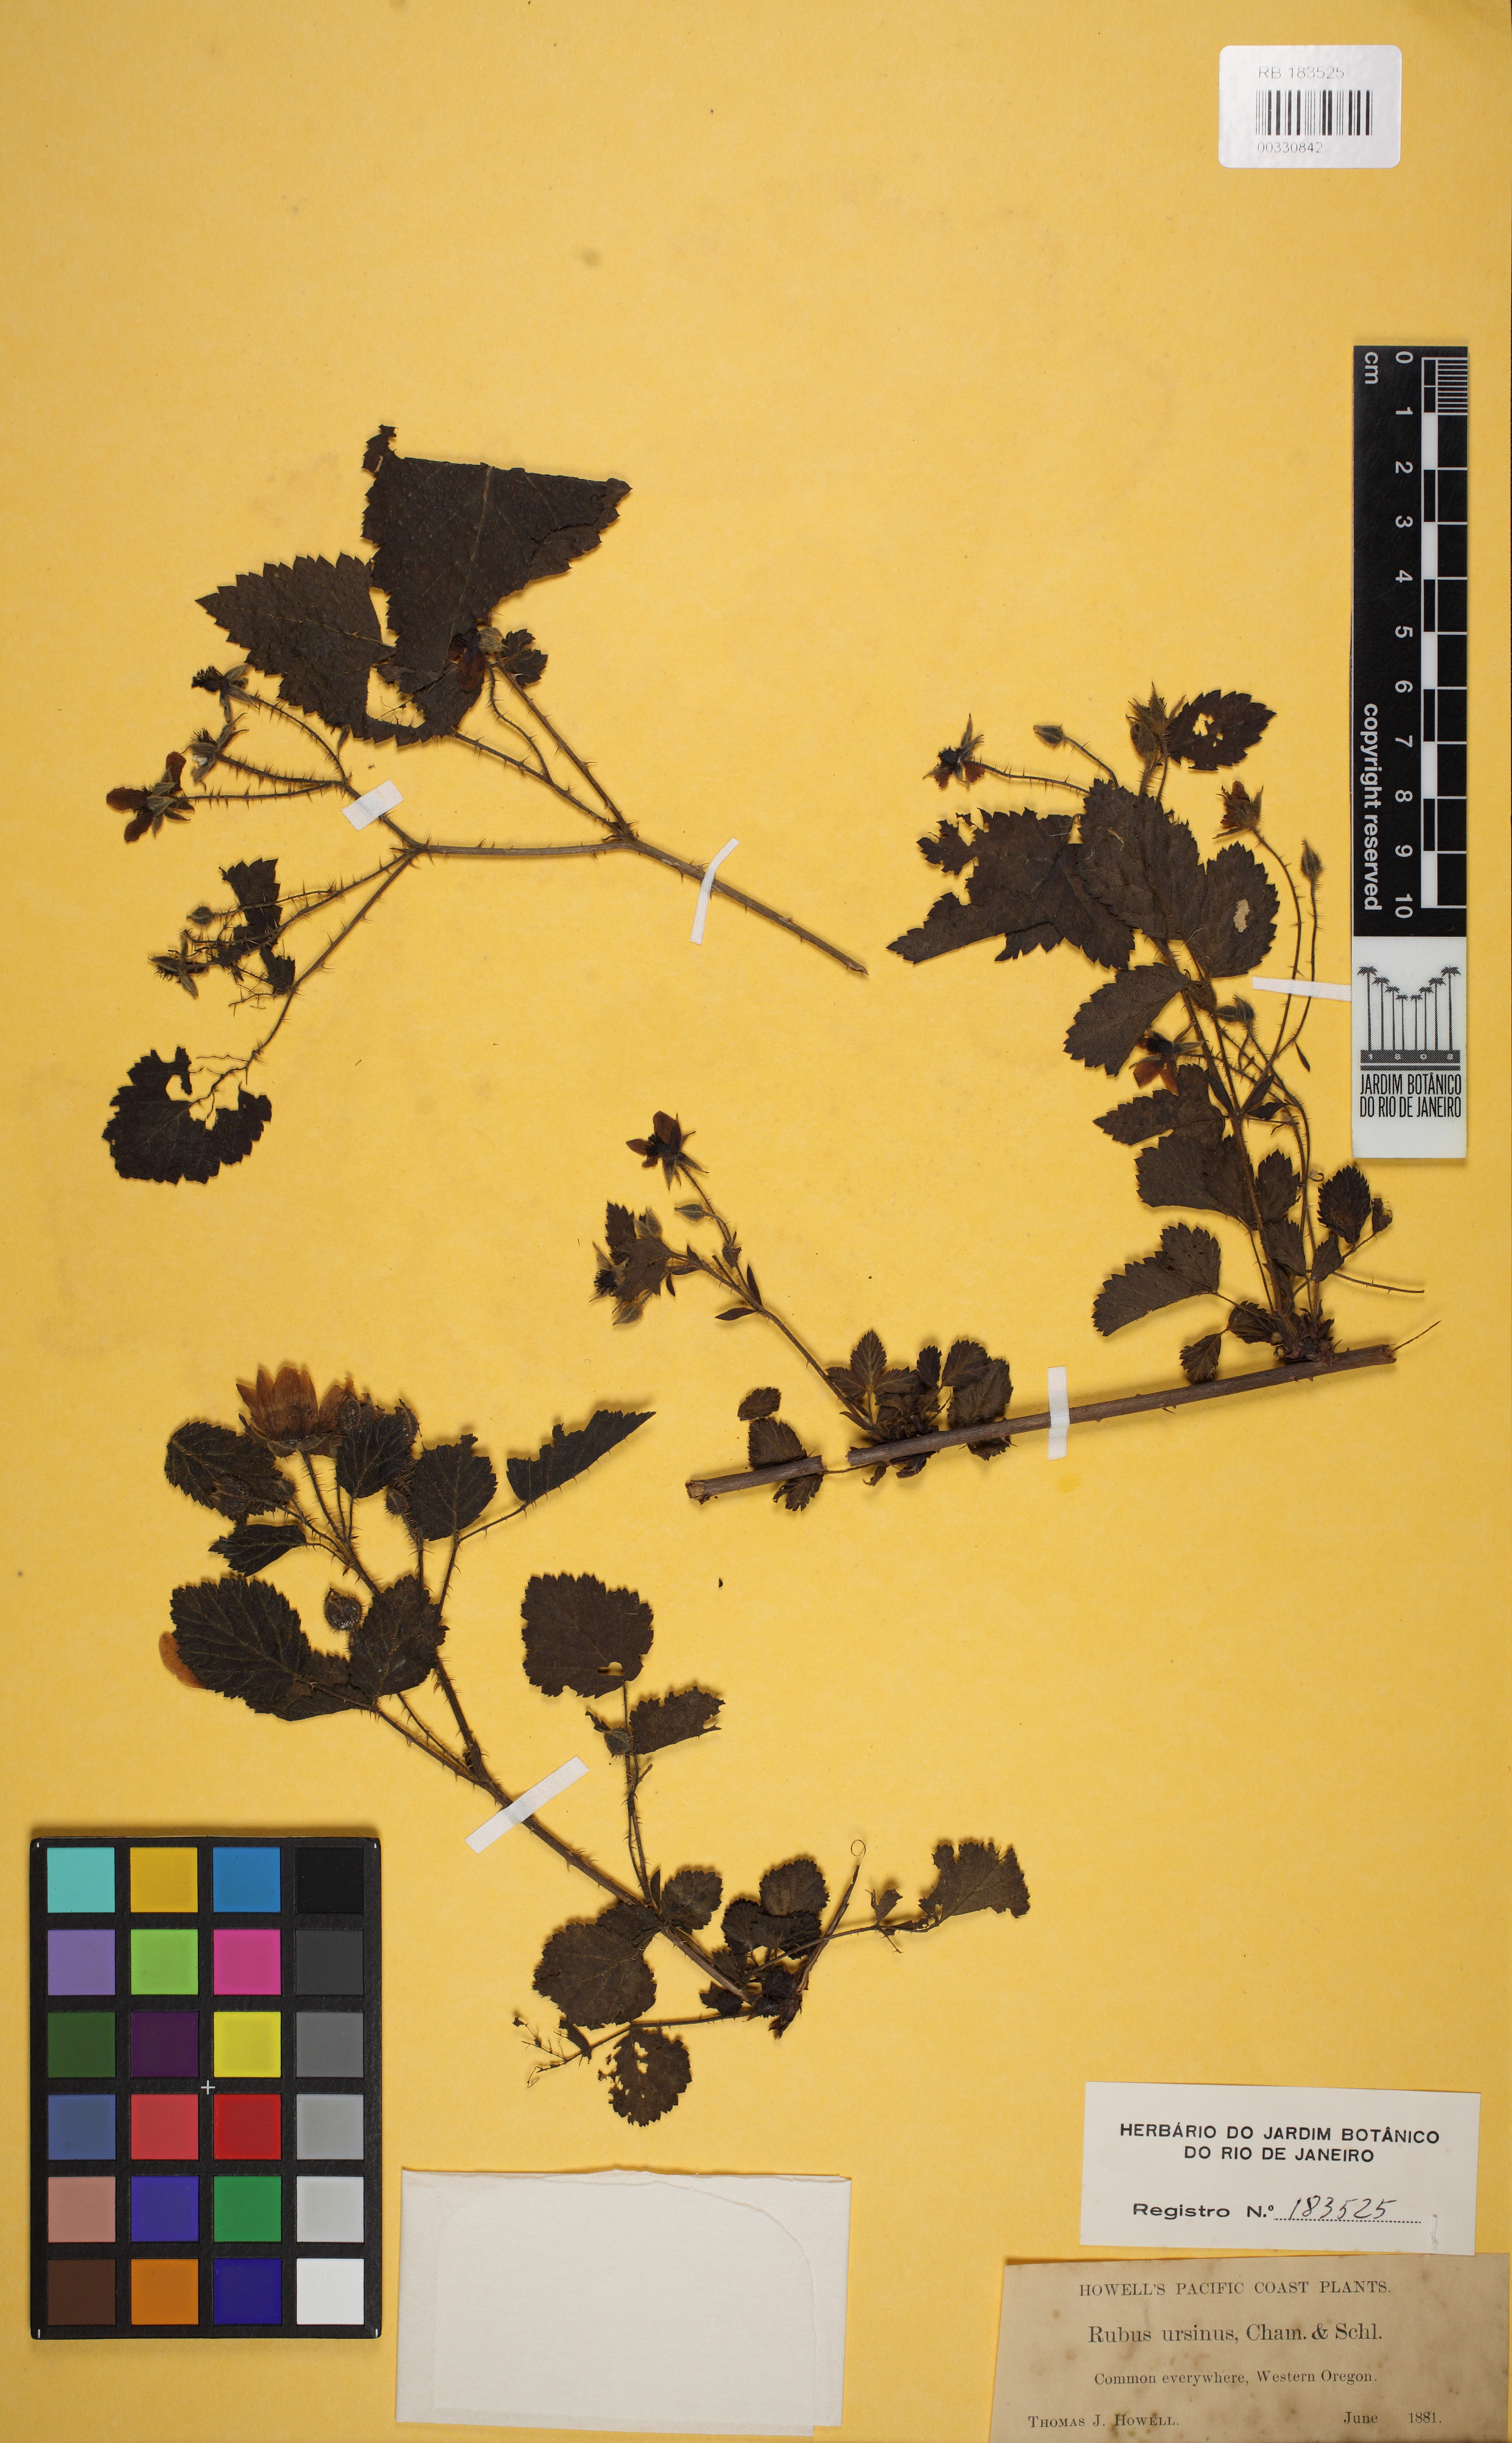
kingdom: Plantae
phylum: Tracheophyta
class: Magnoliopsida
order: Rosales
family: Rosaceae
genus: Rubus
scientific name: Rubus spectabilis
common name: Salmonberry
